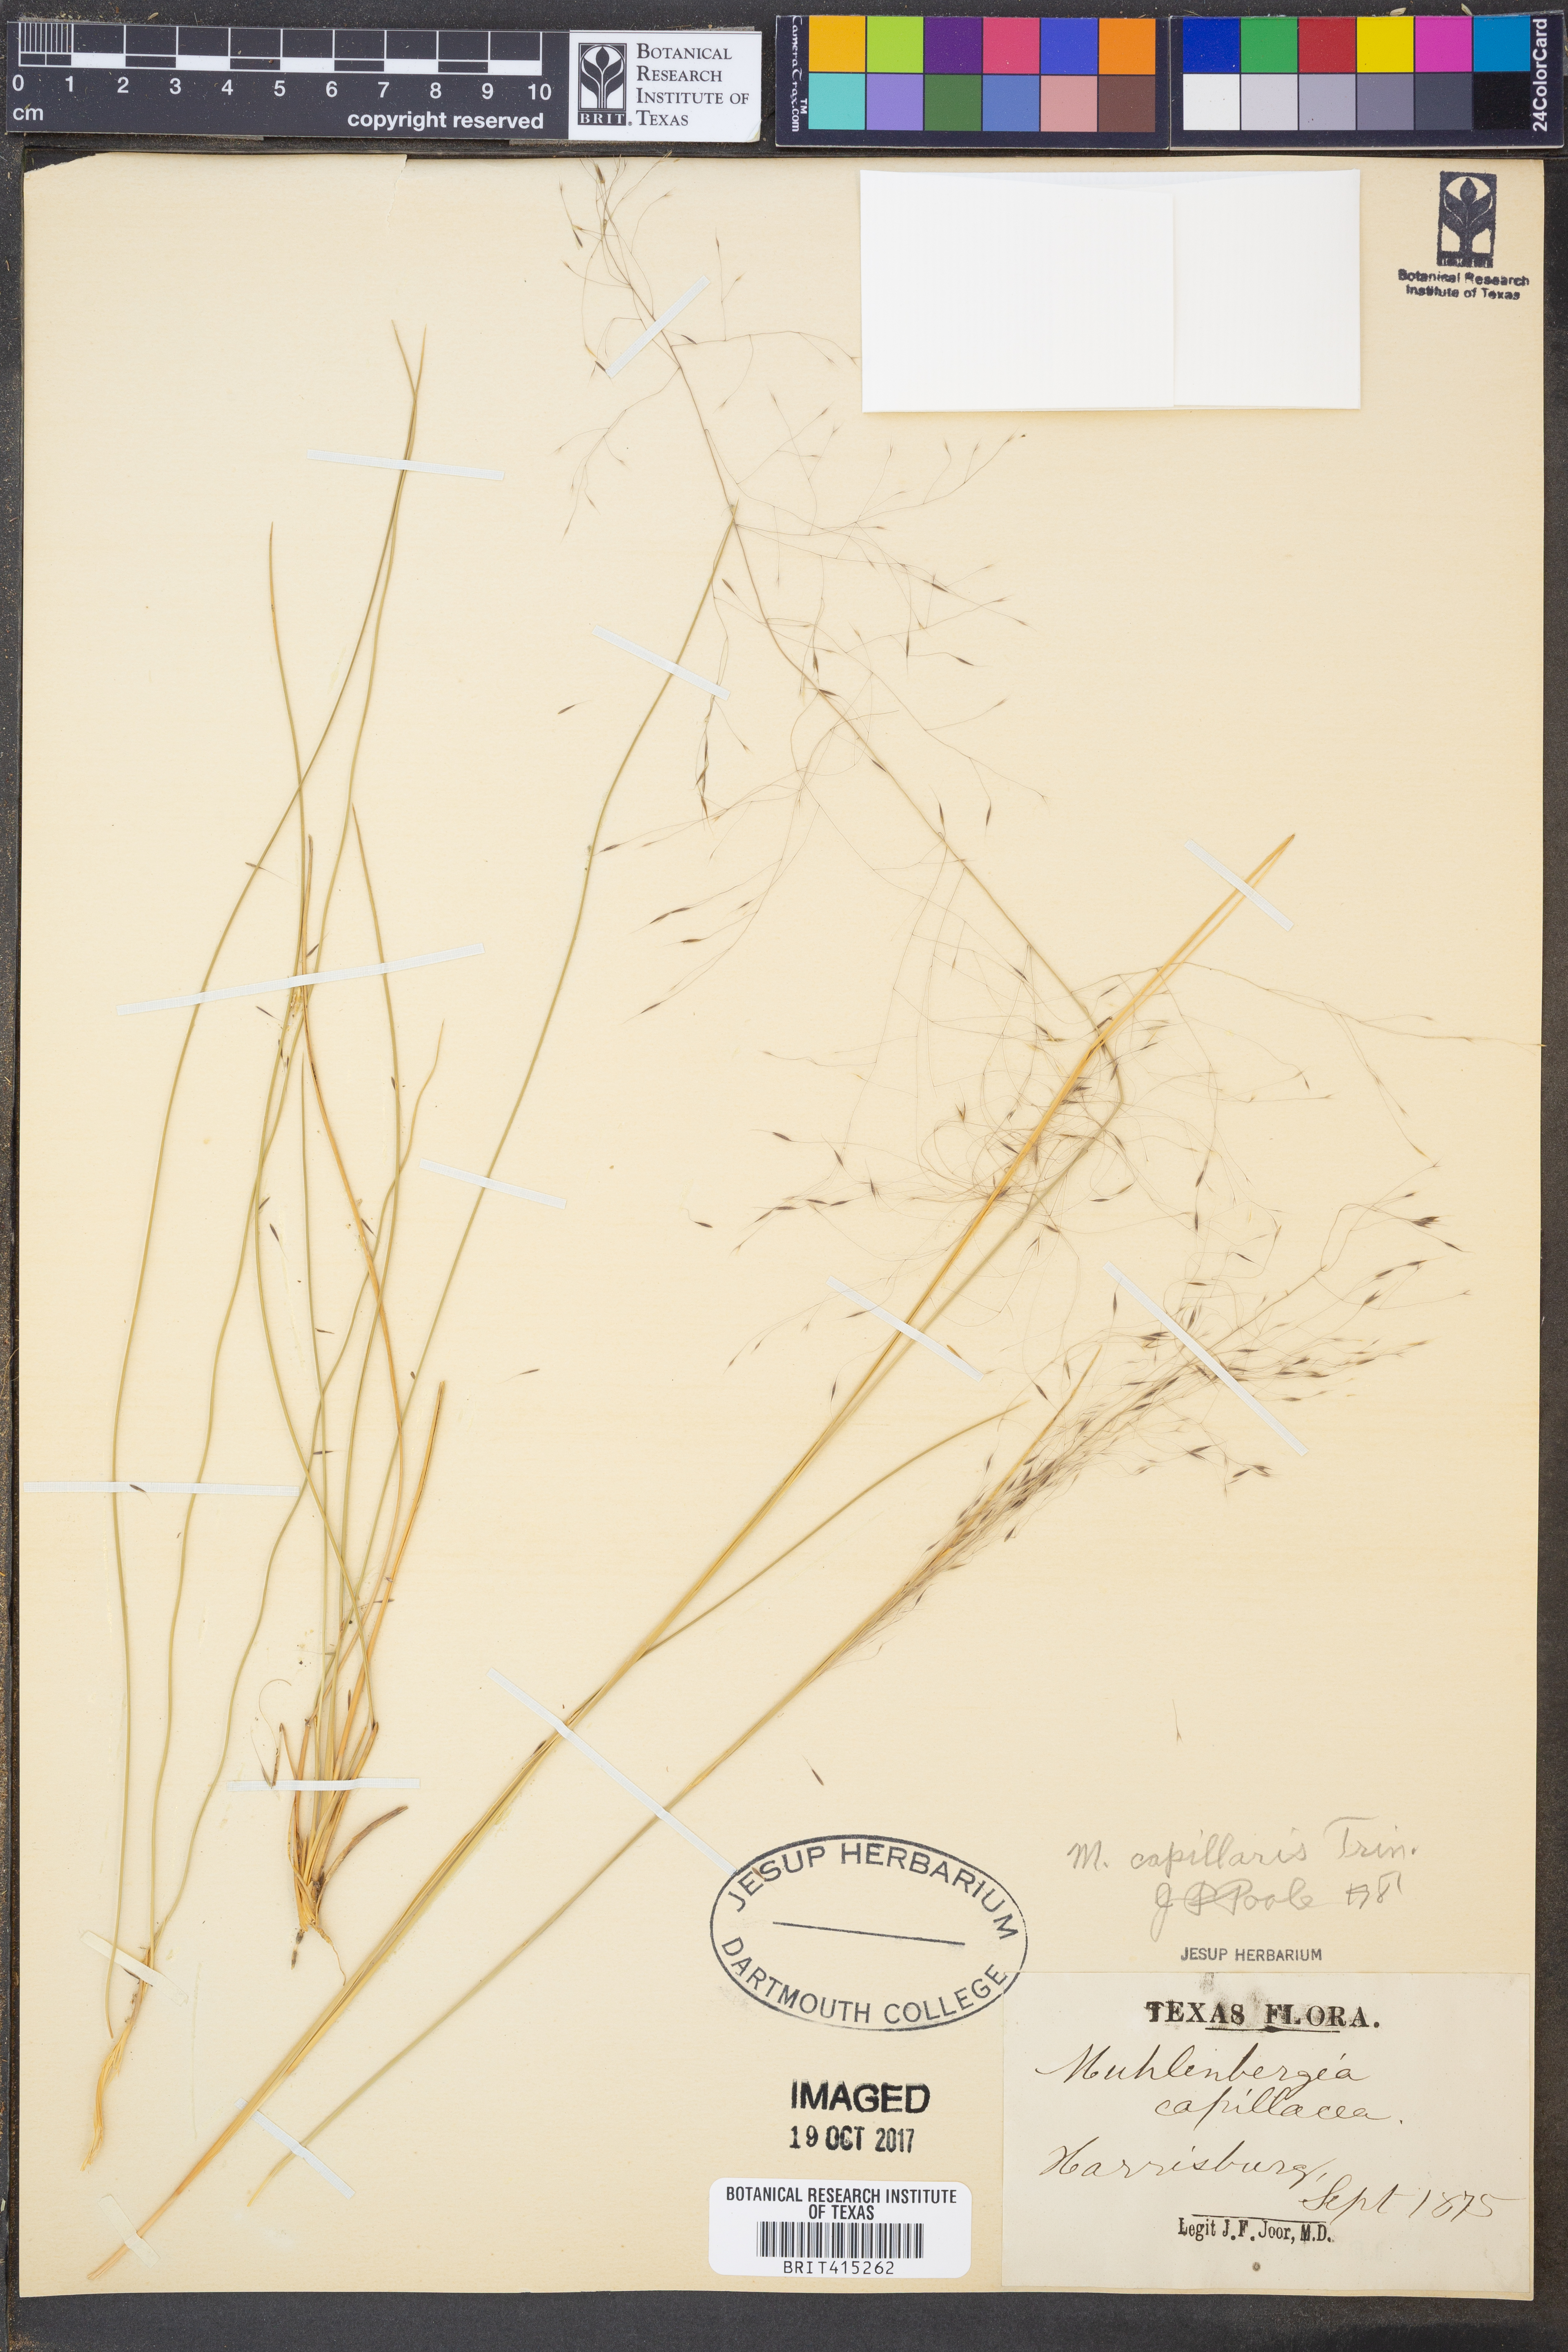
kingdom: Plantae
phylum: Tracheophyta
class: Liliopsida
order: Poales
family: Poaceae
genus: Muhlenbergia
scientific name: Muhlenbergia capillaris
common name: Purple grass
